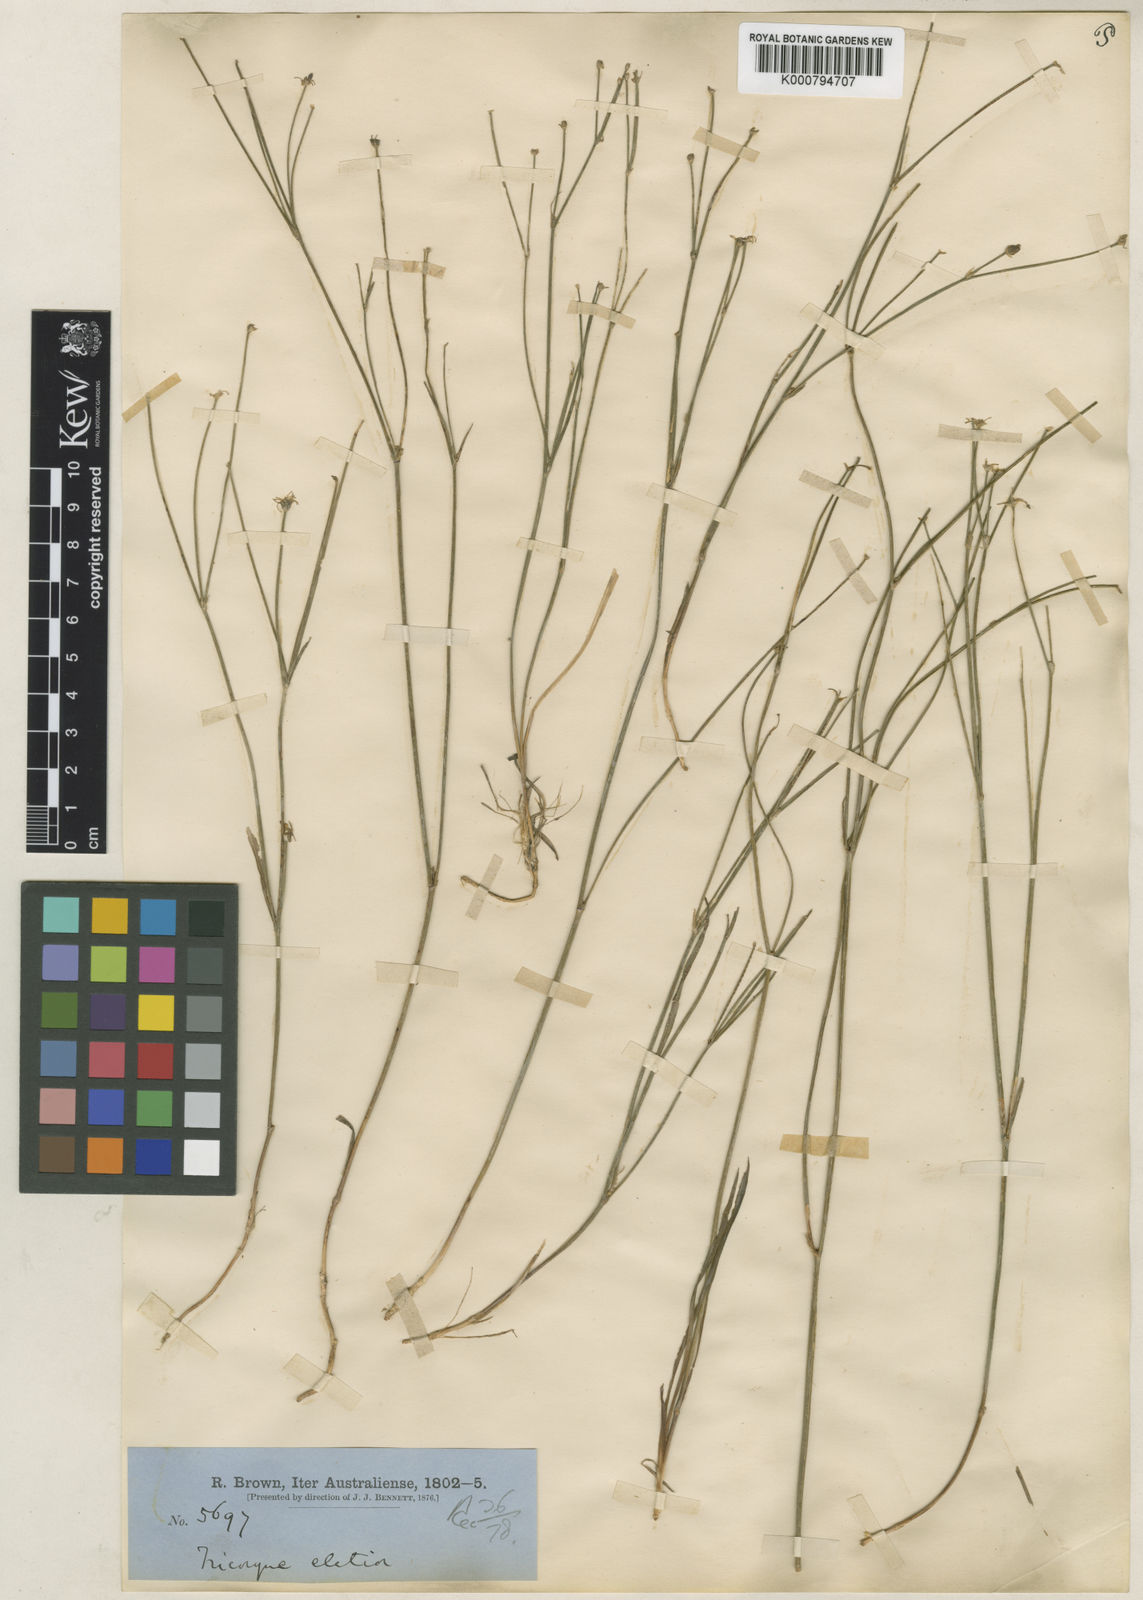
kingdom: Plantae
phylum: Tracheophyta
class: Liliopsida
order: Asparagales
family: Asphodelaceae
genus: Tricoryne
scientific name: Tricoryne elatior
